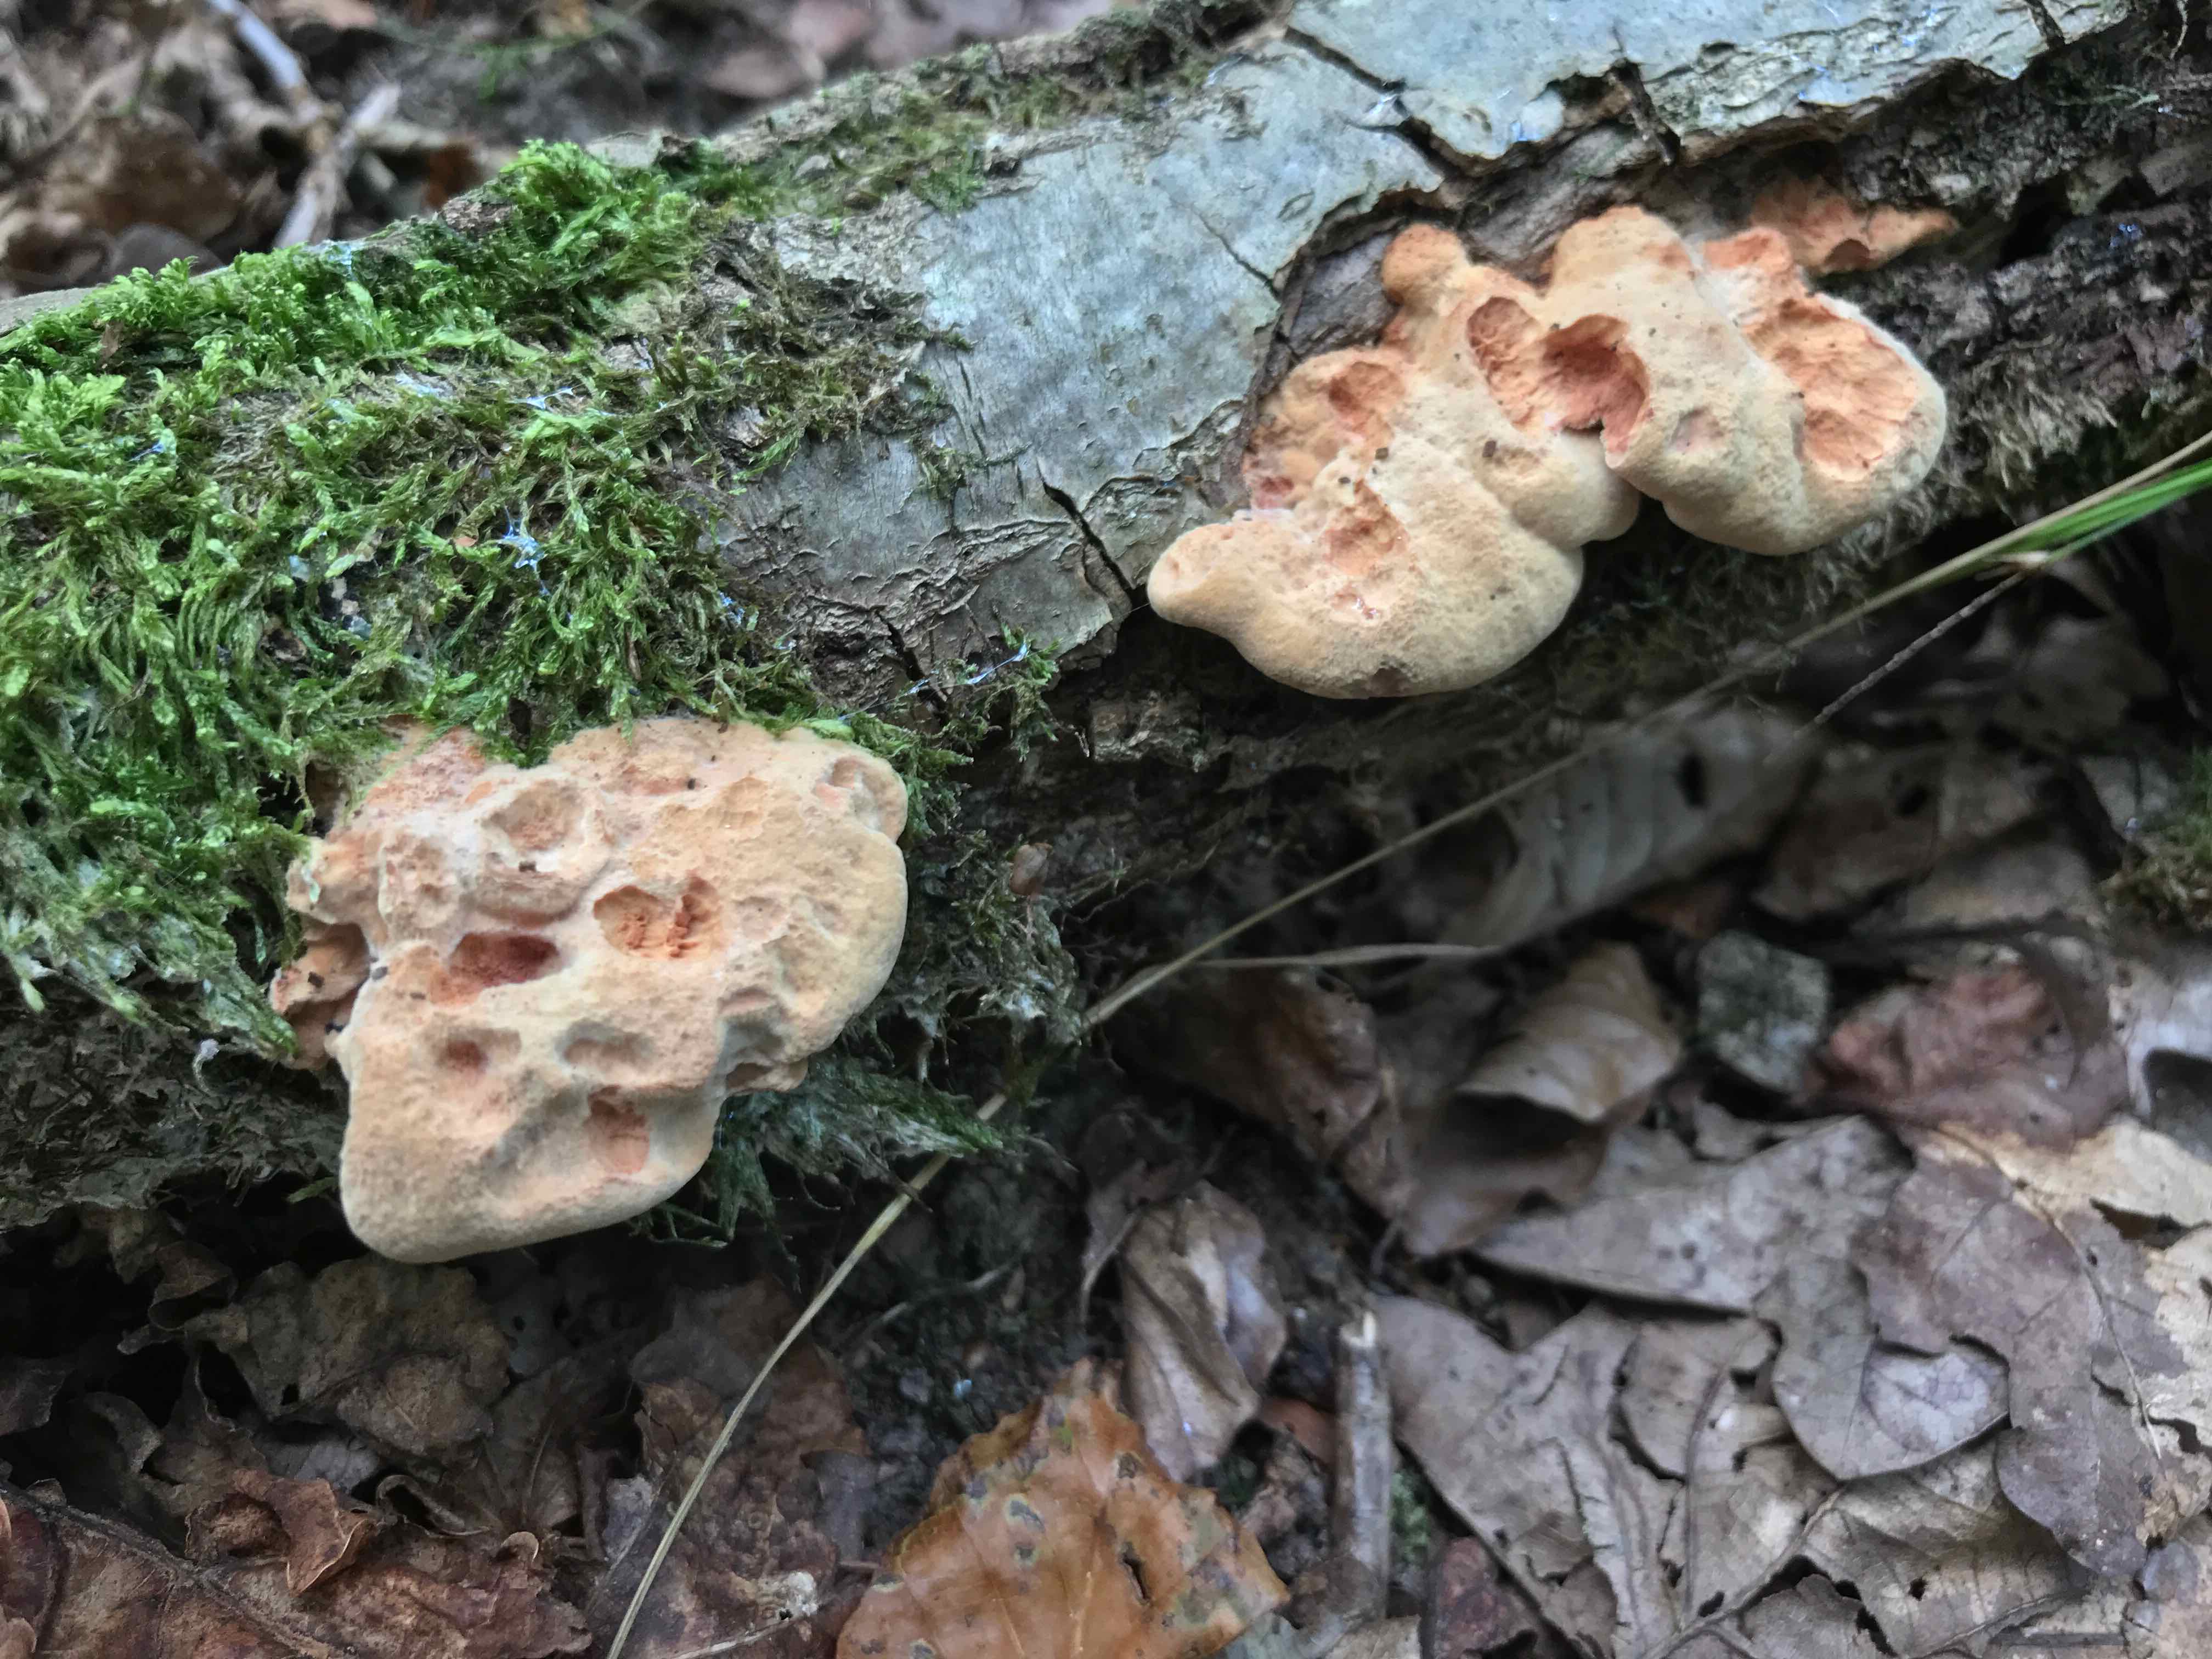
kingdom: Fungi
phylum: Basidiomycota
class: Agaricomycetes
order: Polyporales
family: Phanerochaetaceae
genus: Hapalopilus
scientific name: Hapalopilus rutilans
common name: rødlig okkerporesvamp
